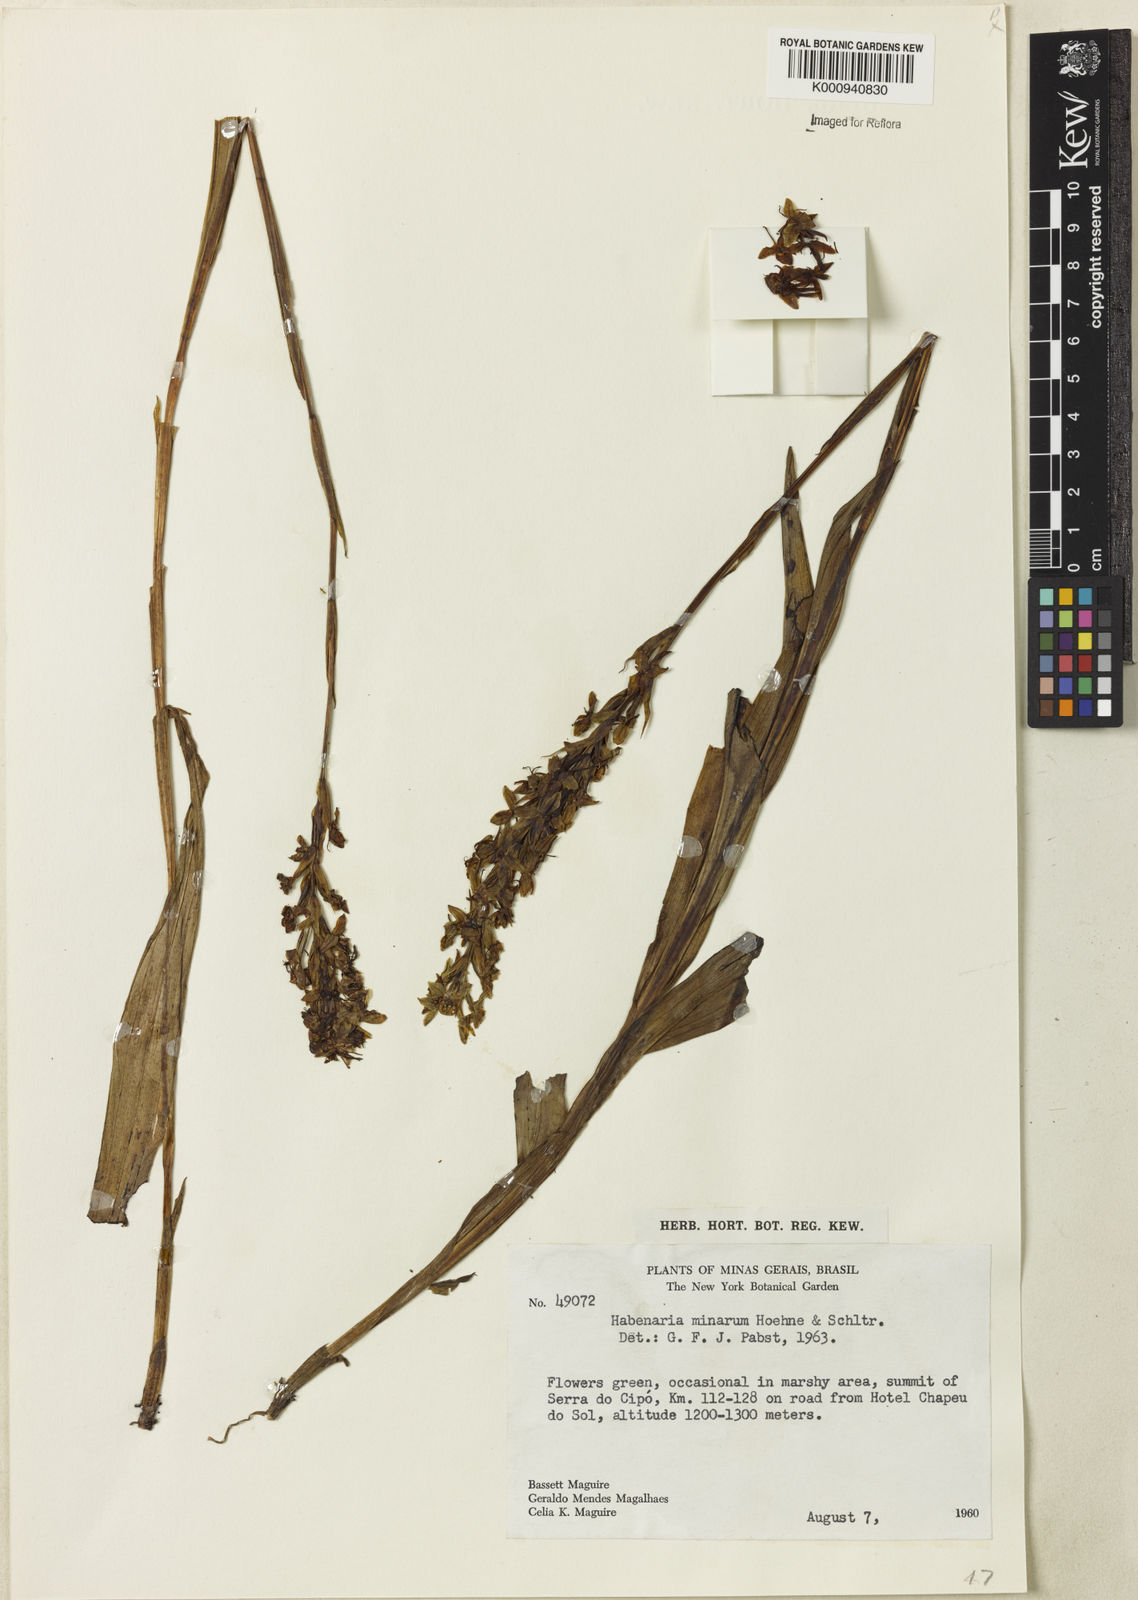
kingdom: Plantae
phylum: Tracheophyta
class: Liliopsida
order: Asparagales
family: Orchidaceae
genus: Habenaria
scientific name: Habenaria rupicola
